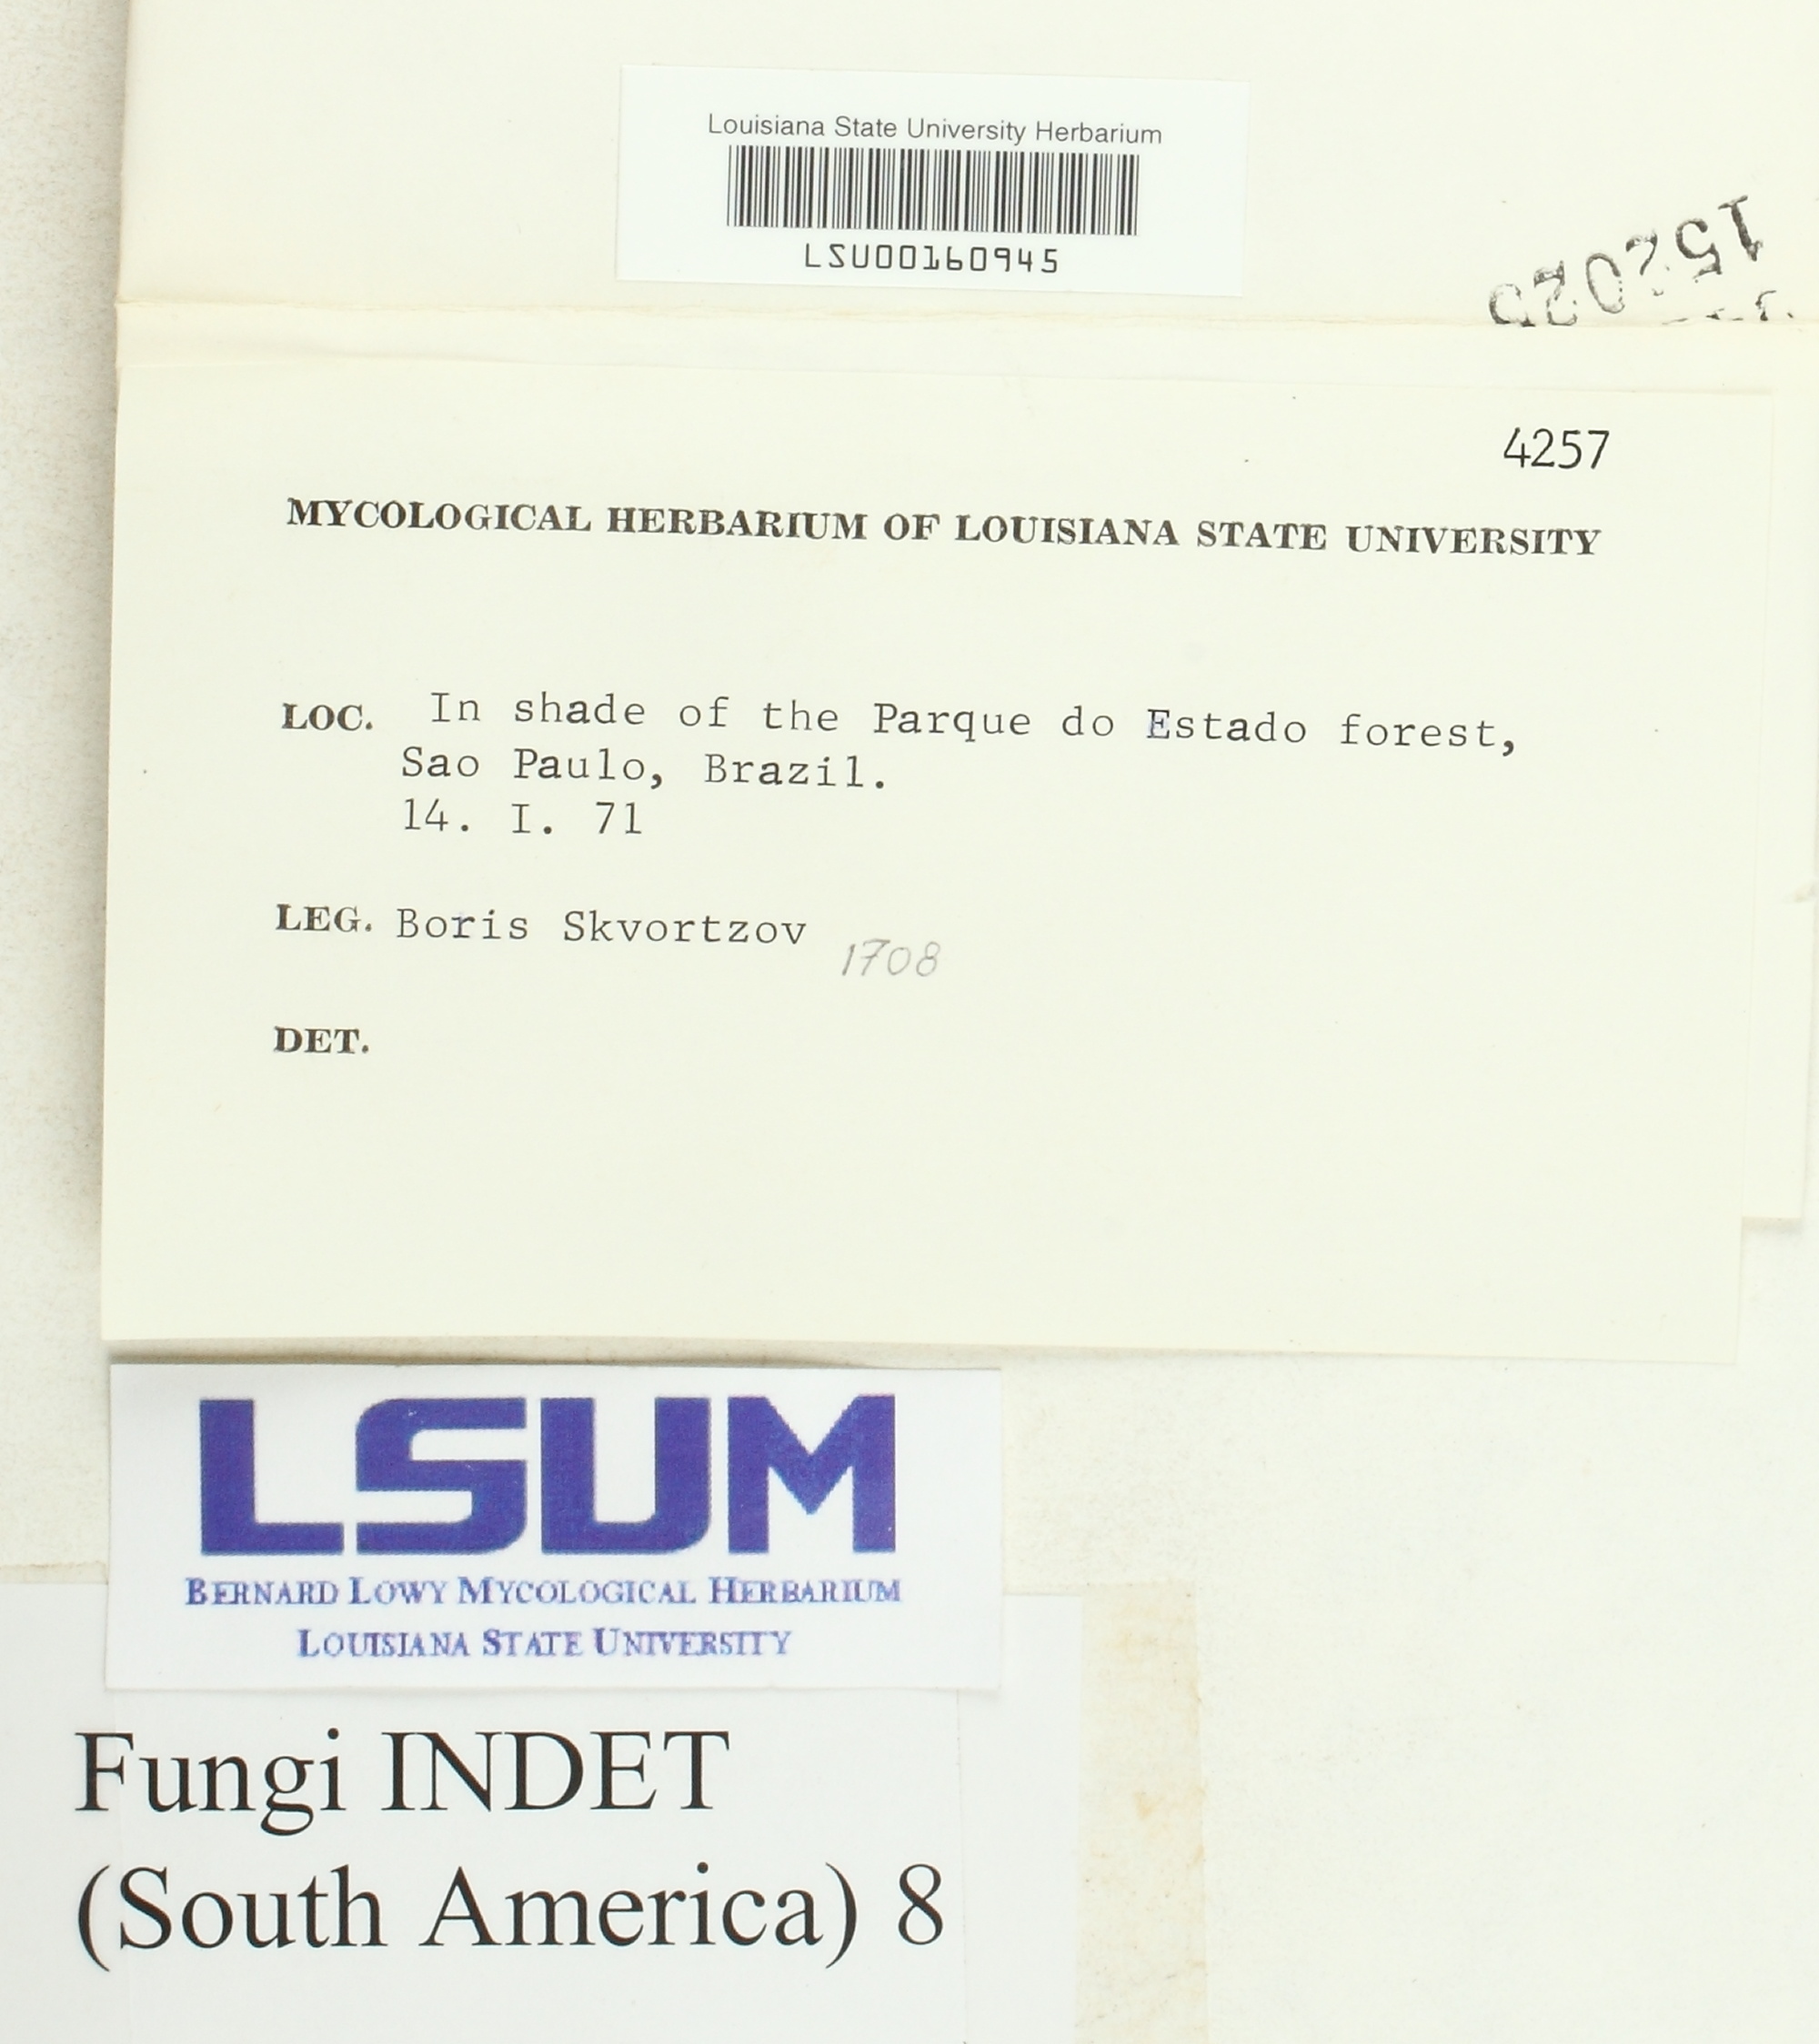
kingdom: Fungi
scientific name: Fungi
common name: Fungi
